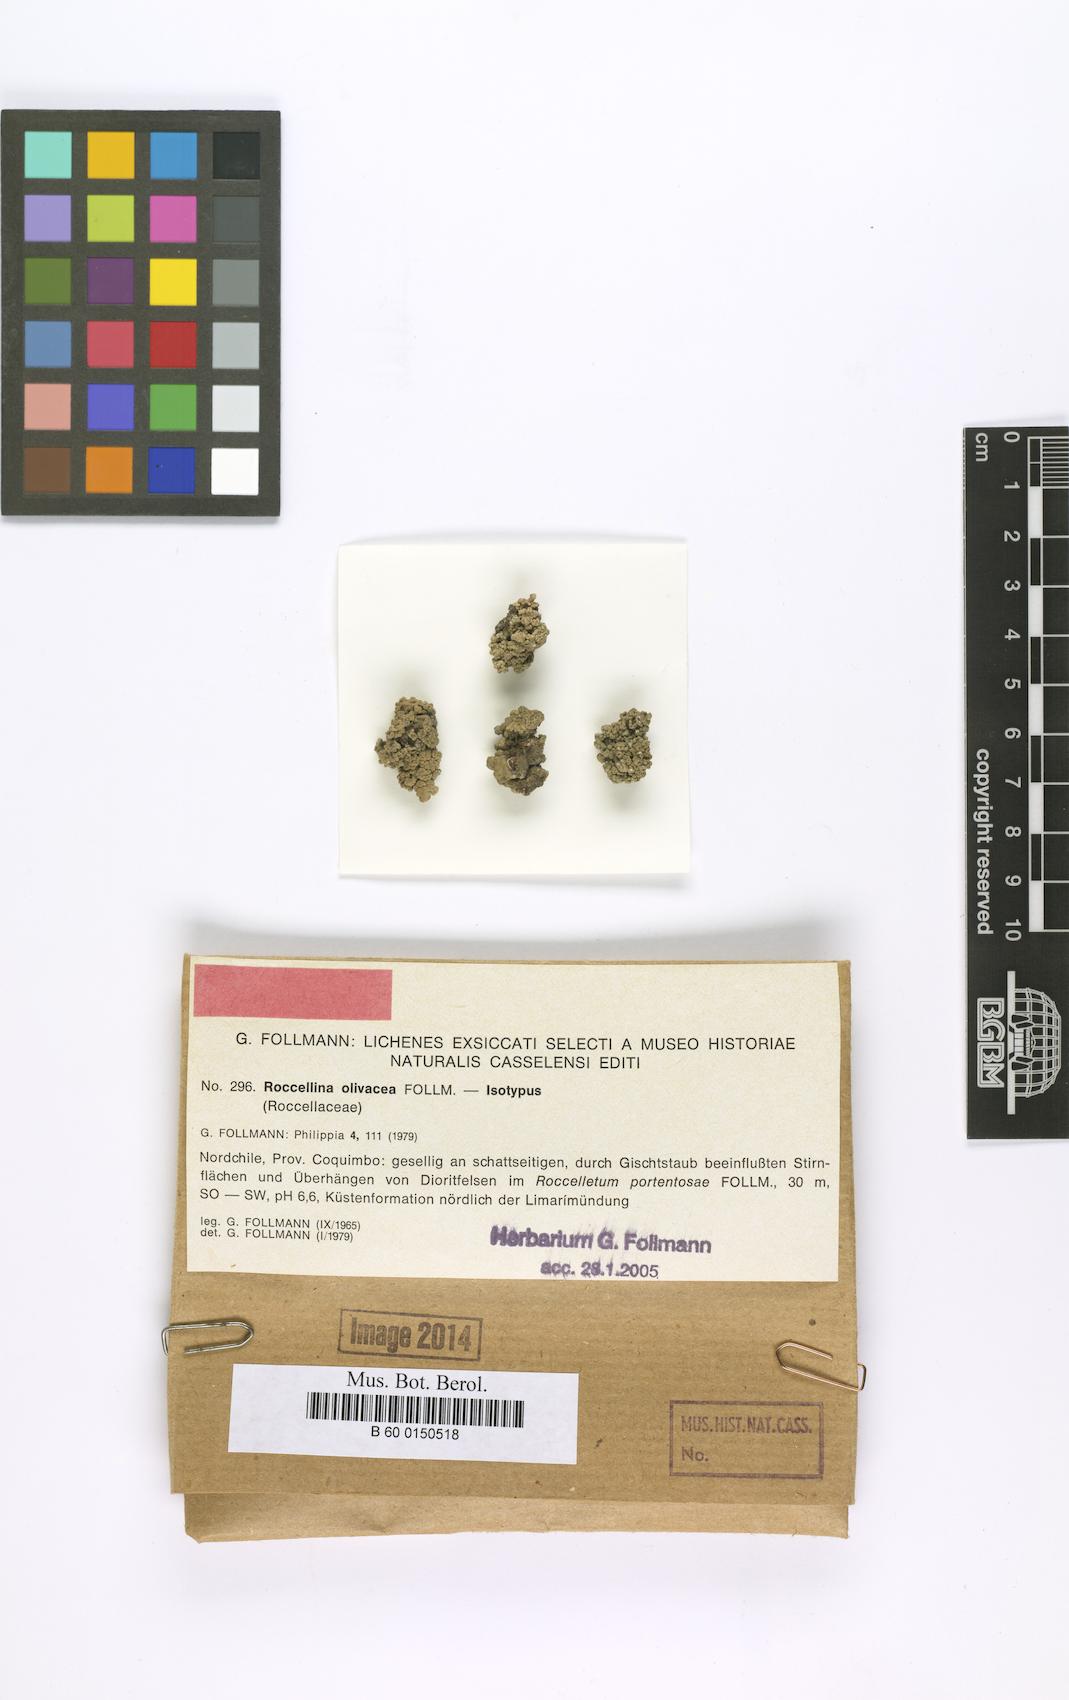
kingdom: Fungi
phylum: Ascomycota
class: Arthoniomycetes
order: Arthoniales
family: Roccellaceae
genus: Roccellina
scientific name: Roccellina accedens
